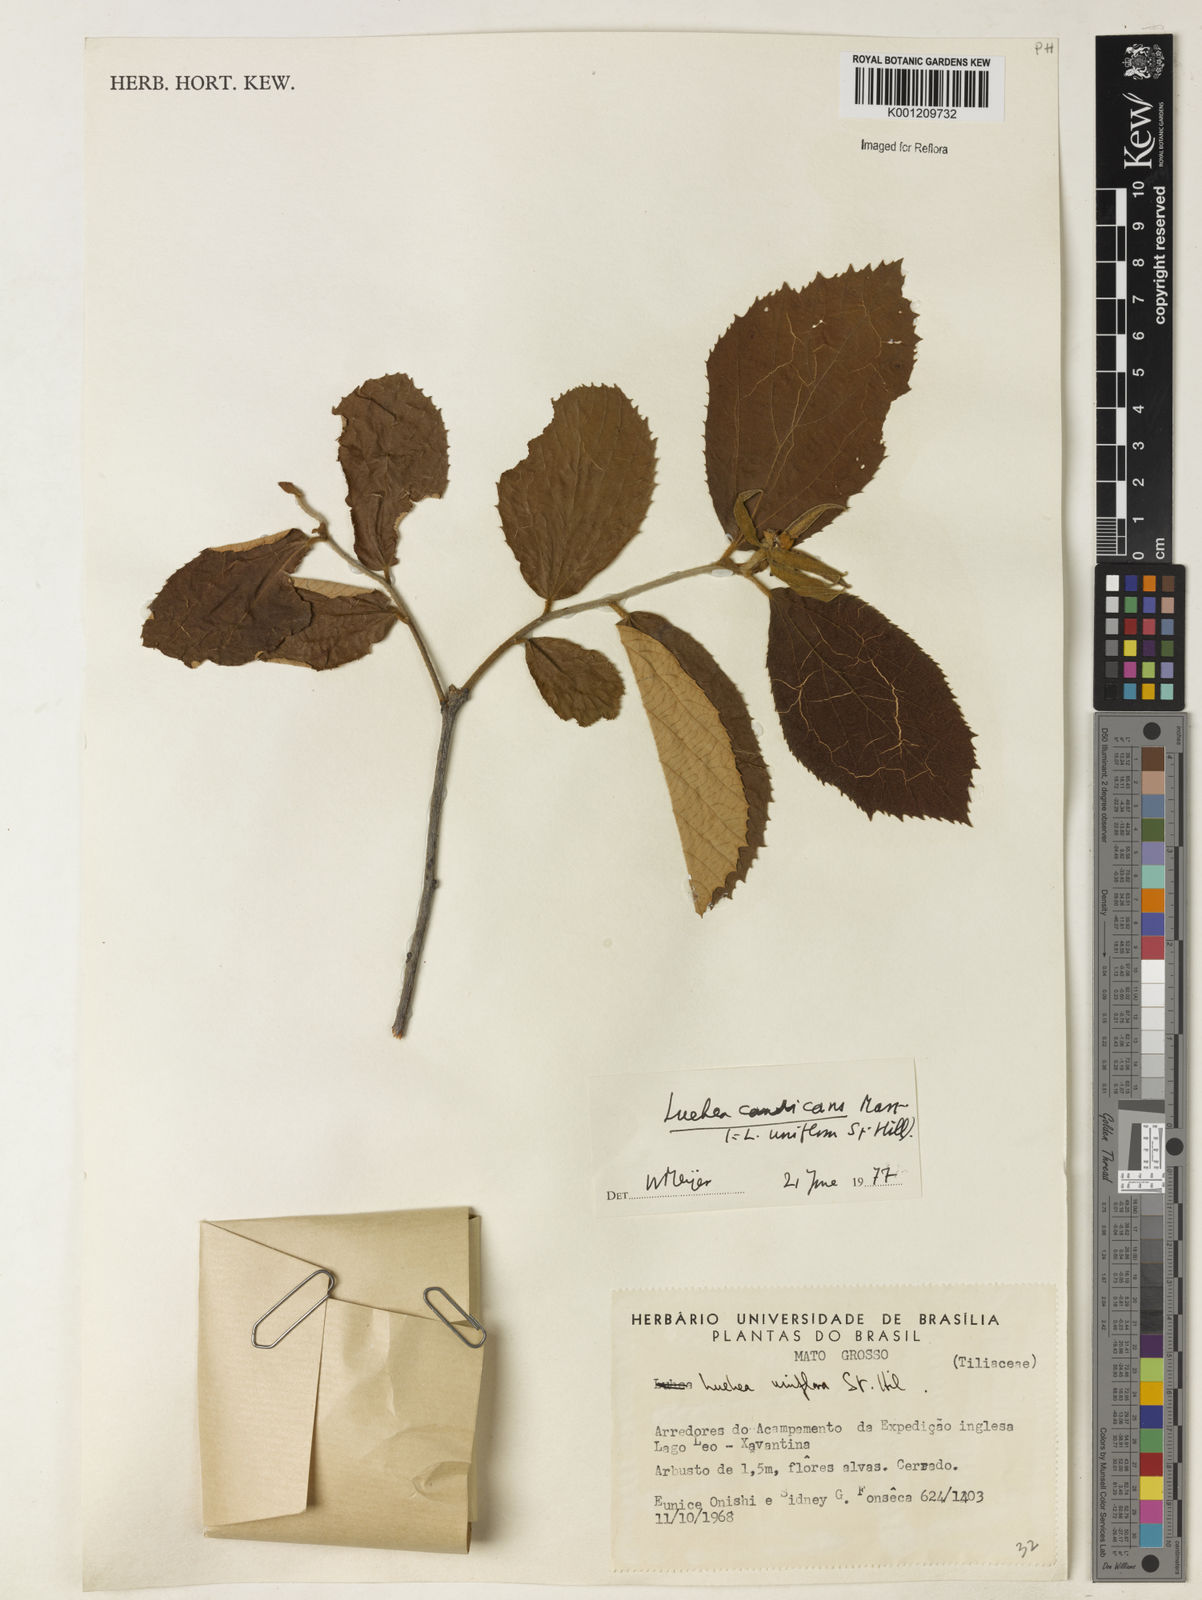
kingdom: Plantae
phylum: Tracheophyta
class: Magnoliopsida
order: Malvales
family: Malvaceae
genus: Luehea
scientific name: Luehea candicans
